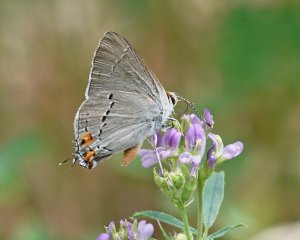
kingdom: Animalia
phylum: Arthropoda
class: Insecta
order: Lepidoptera
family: Lycaenidae
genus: Strymon
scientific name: Strymon melinus
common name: Gray Hairstreak
